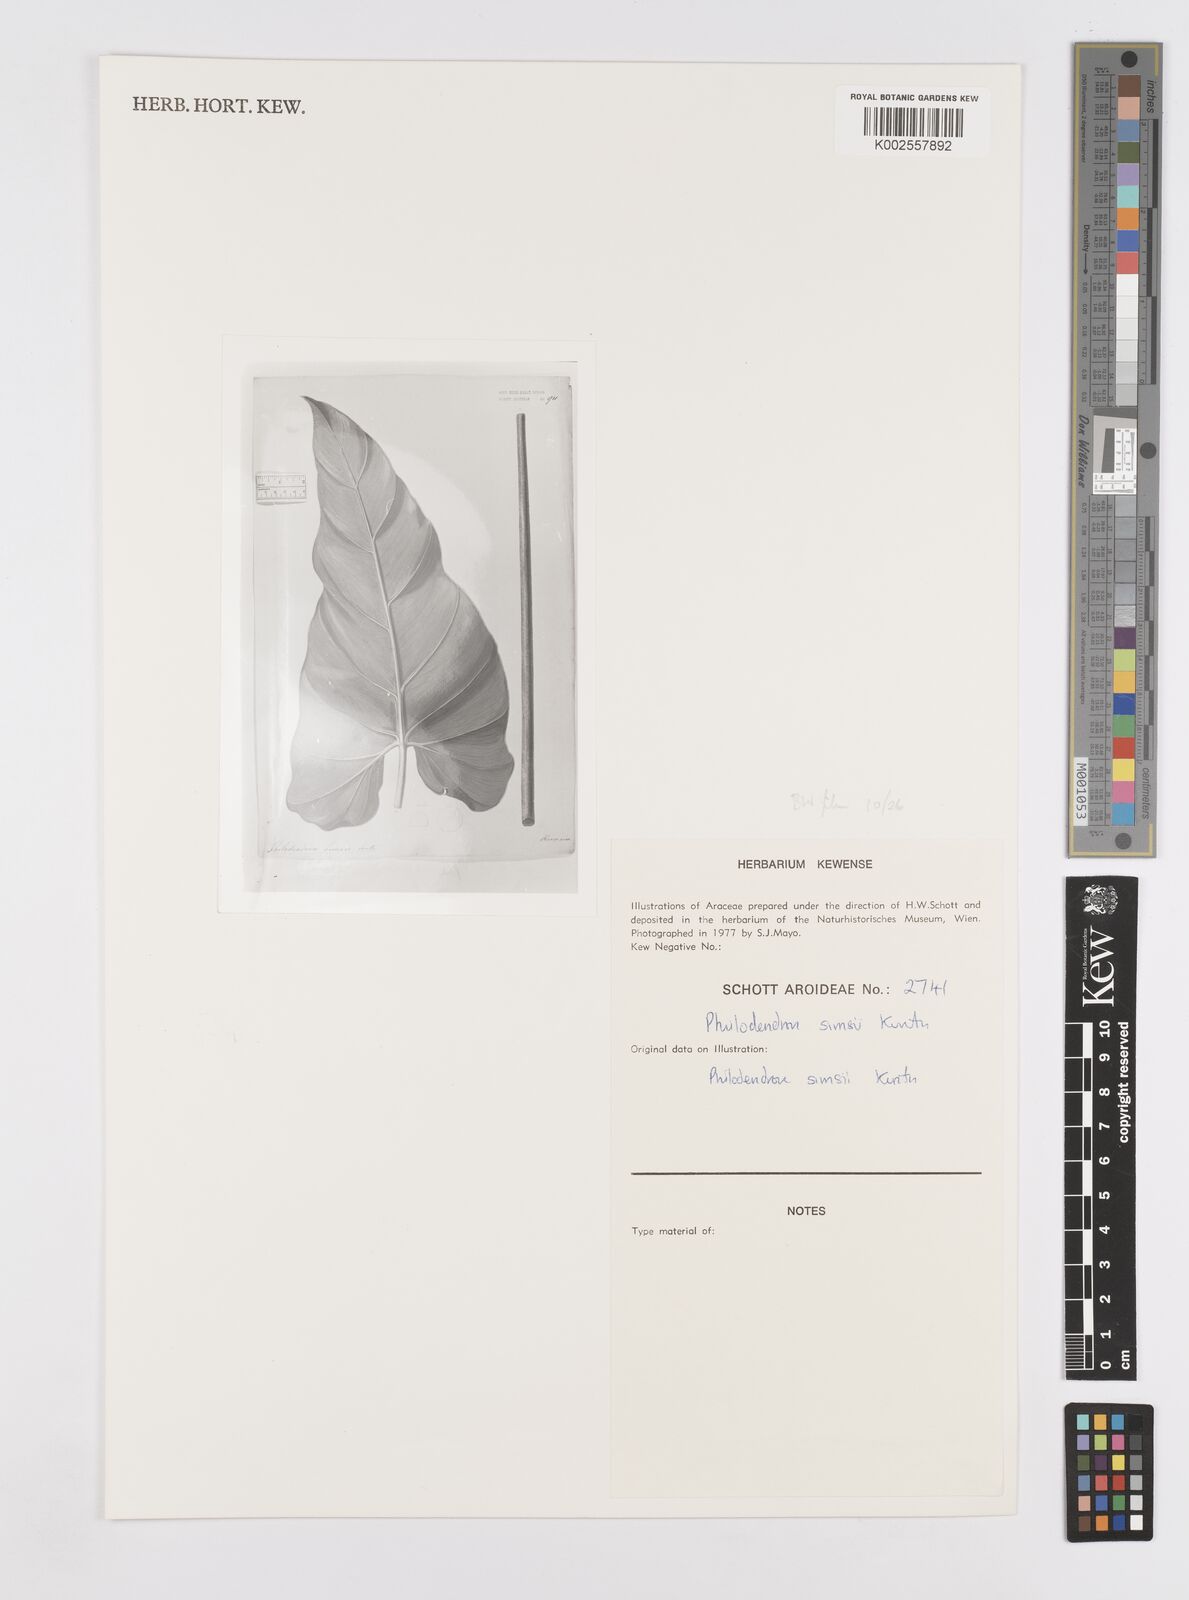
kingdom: Plantae
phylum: Tracheophyta
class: Liliopsida
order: Alismatales
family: Araceae
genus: Philodendron
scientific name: Philodendron
